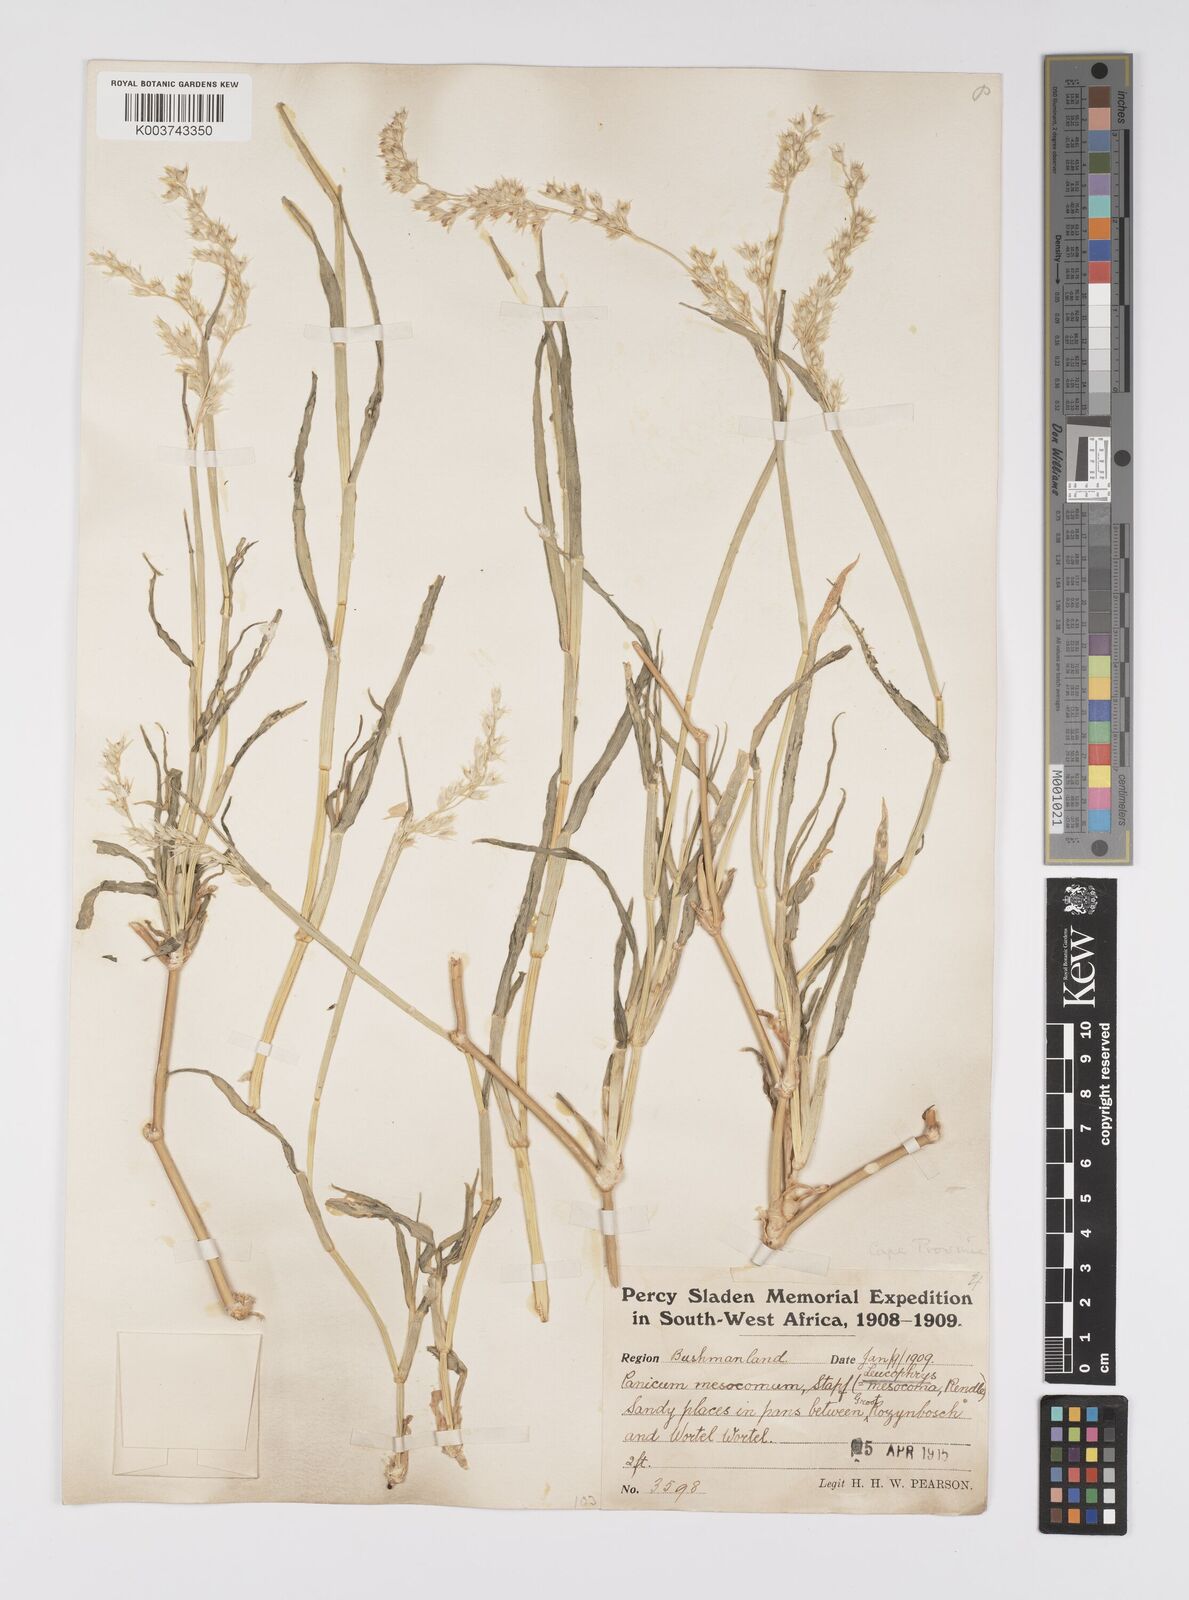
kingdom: Plantae
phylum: Tracheophyta
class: Liliopsida
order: Poales
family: Poaceae
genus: Urochloa
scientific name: Urochloa Brachiaria mesocoma
